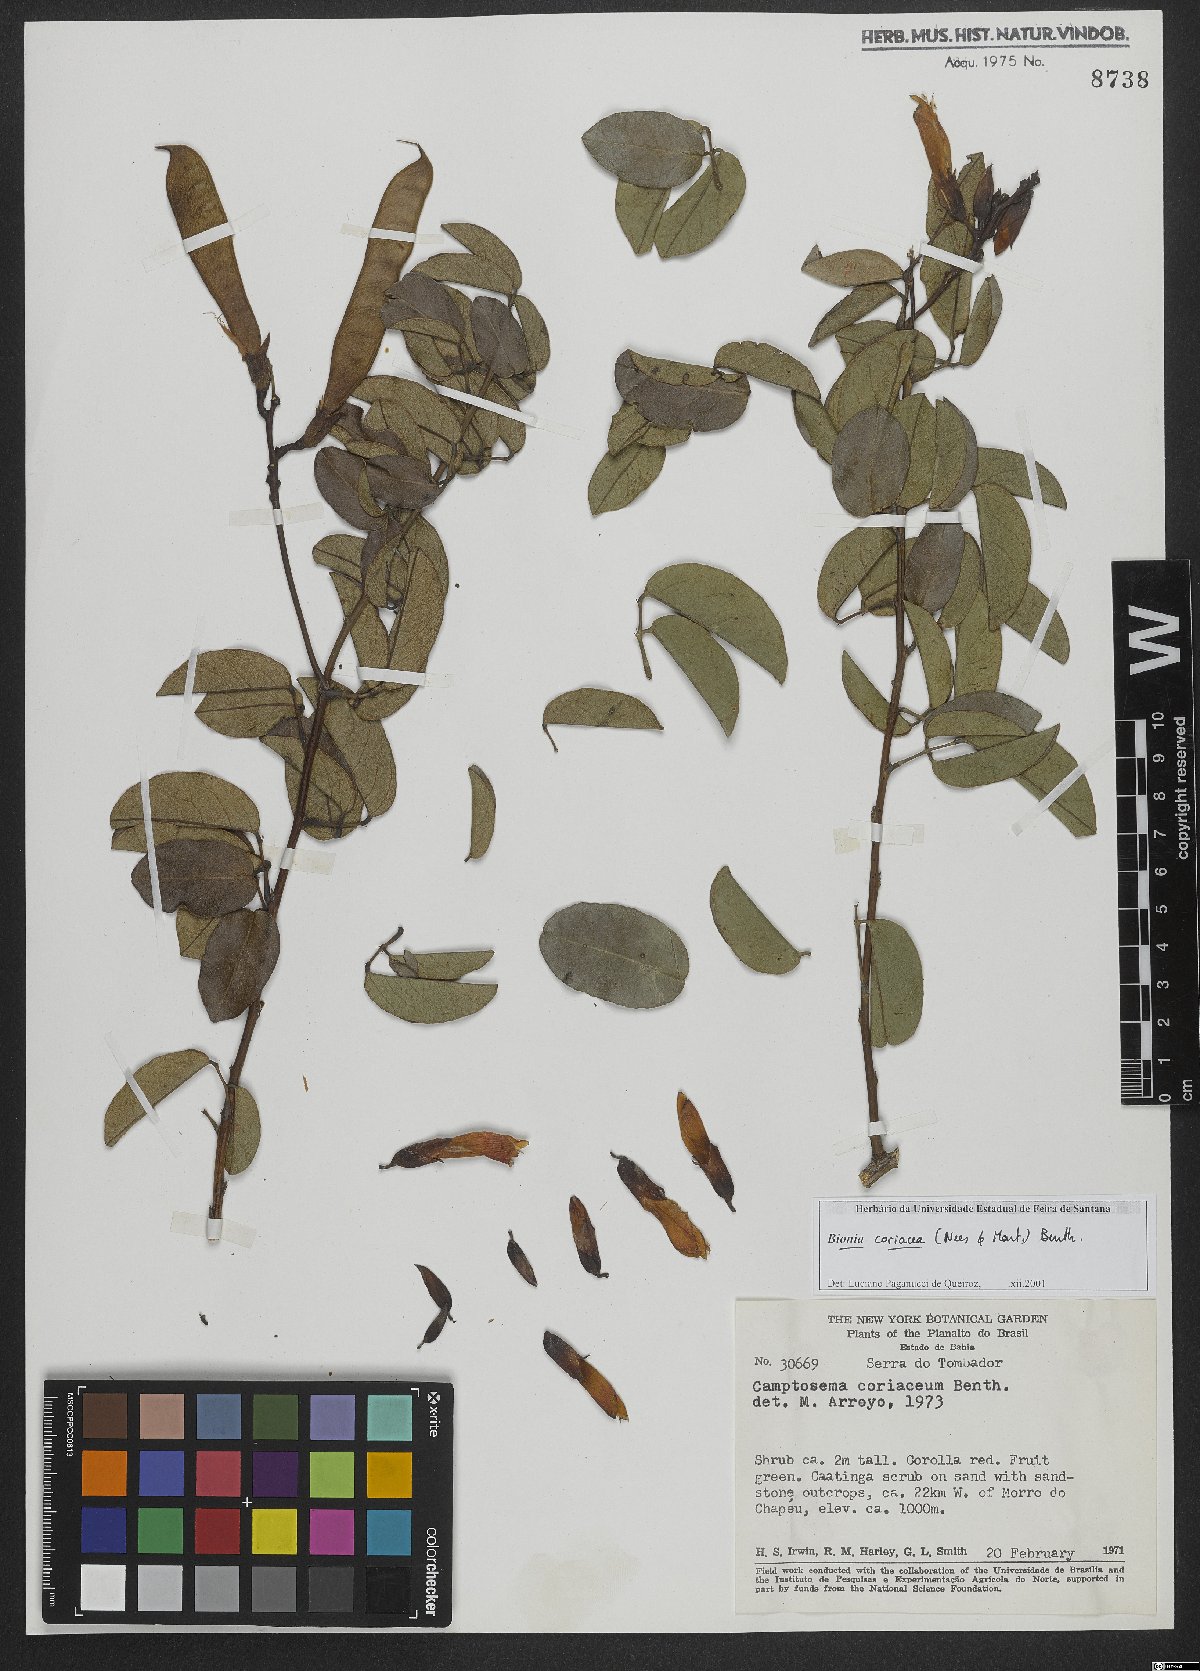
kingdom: Plantae
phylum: Tracheophyta
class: Magnoliopsida
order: Fabales
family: Fabaceae
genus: Camptosema
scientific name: Camptosema coriaceum
